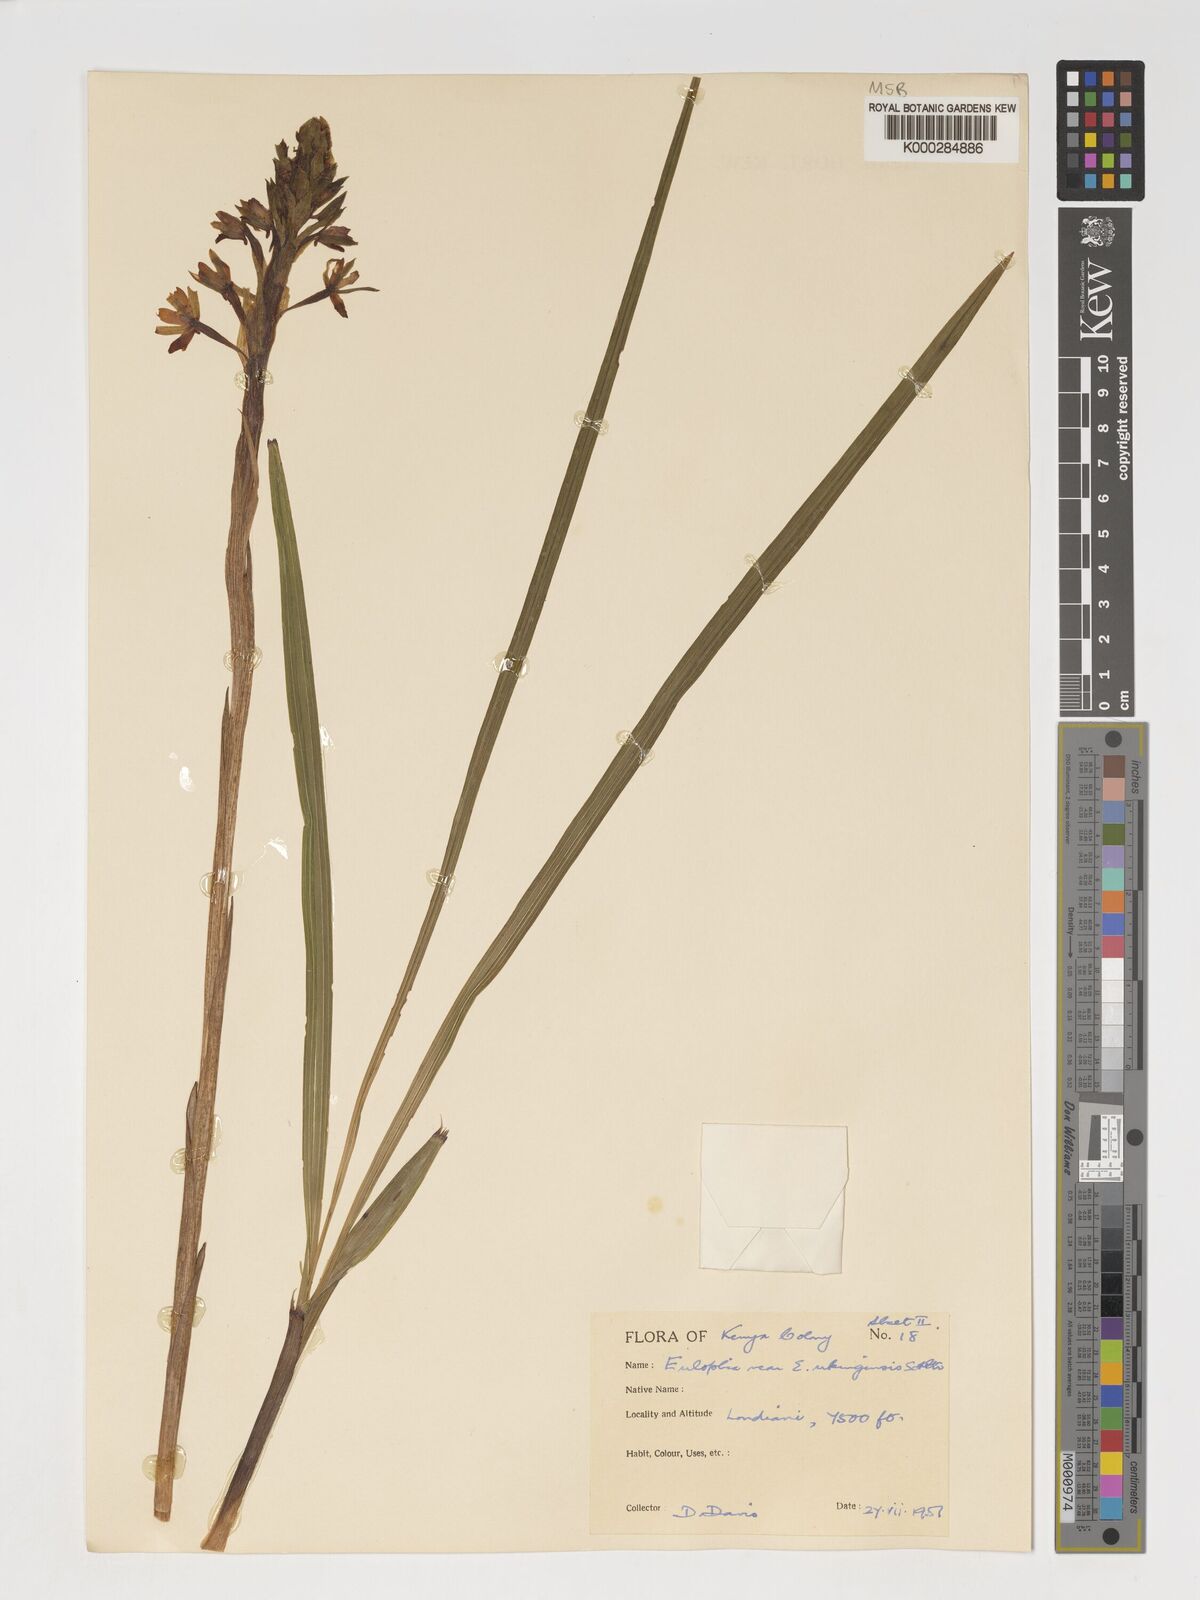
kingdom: Plantae
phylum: Tracheophyta
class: Liliopsida
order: Asparagales
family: Orchidaceae
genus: Eulophia
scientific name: Eulophia hians
